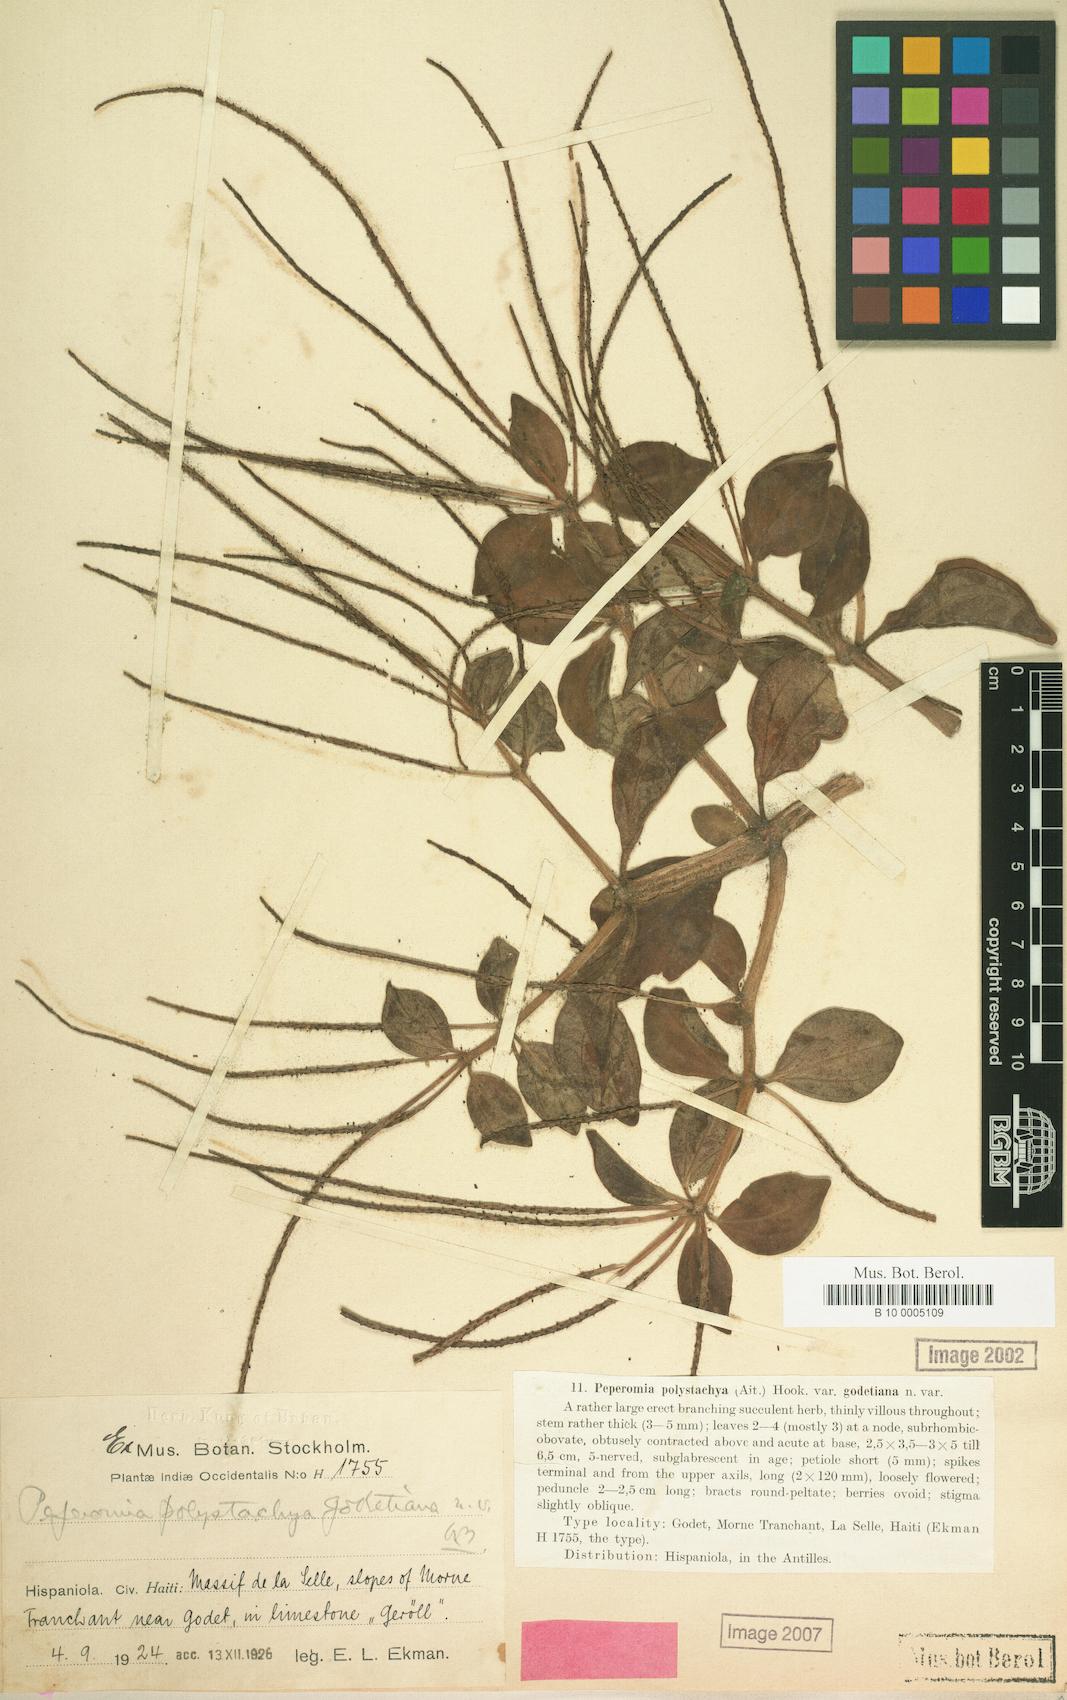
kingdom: Plantae
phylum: Tracheophyta
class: Magnoliopsida
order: Piperales
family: Piperaceae
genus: Peperomia
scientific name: Peperomia blanda
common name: Arid-land peperomia
